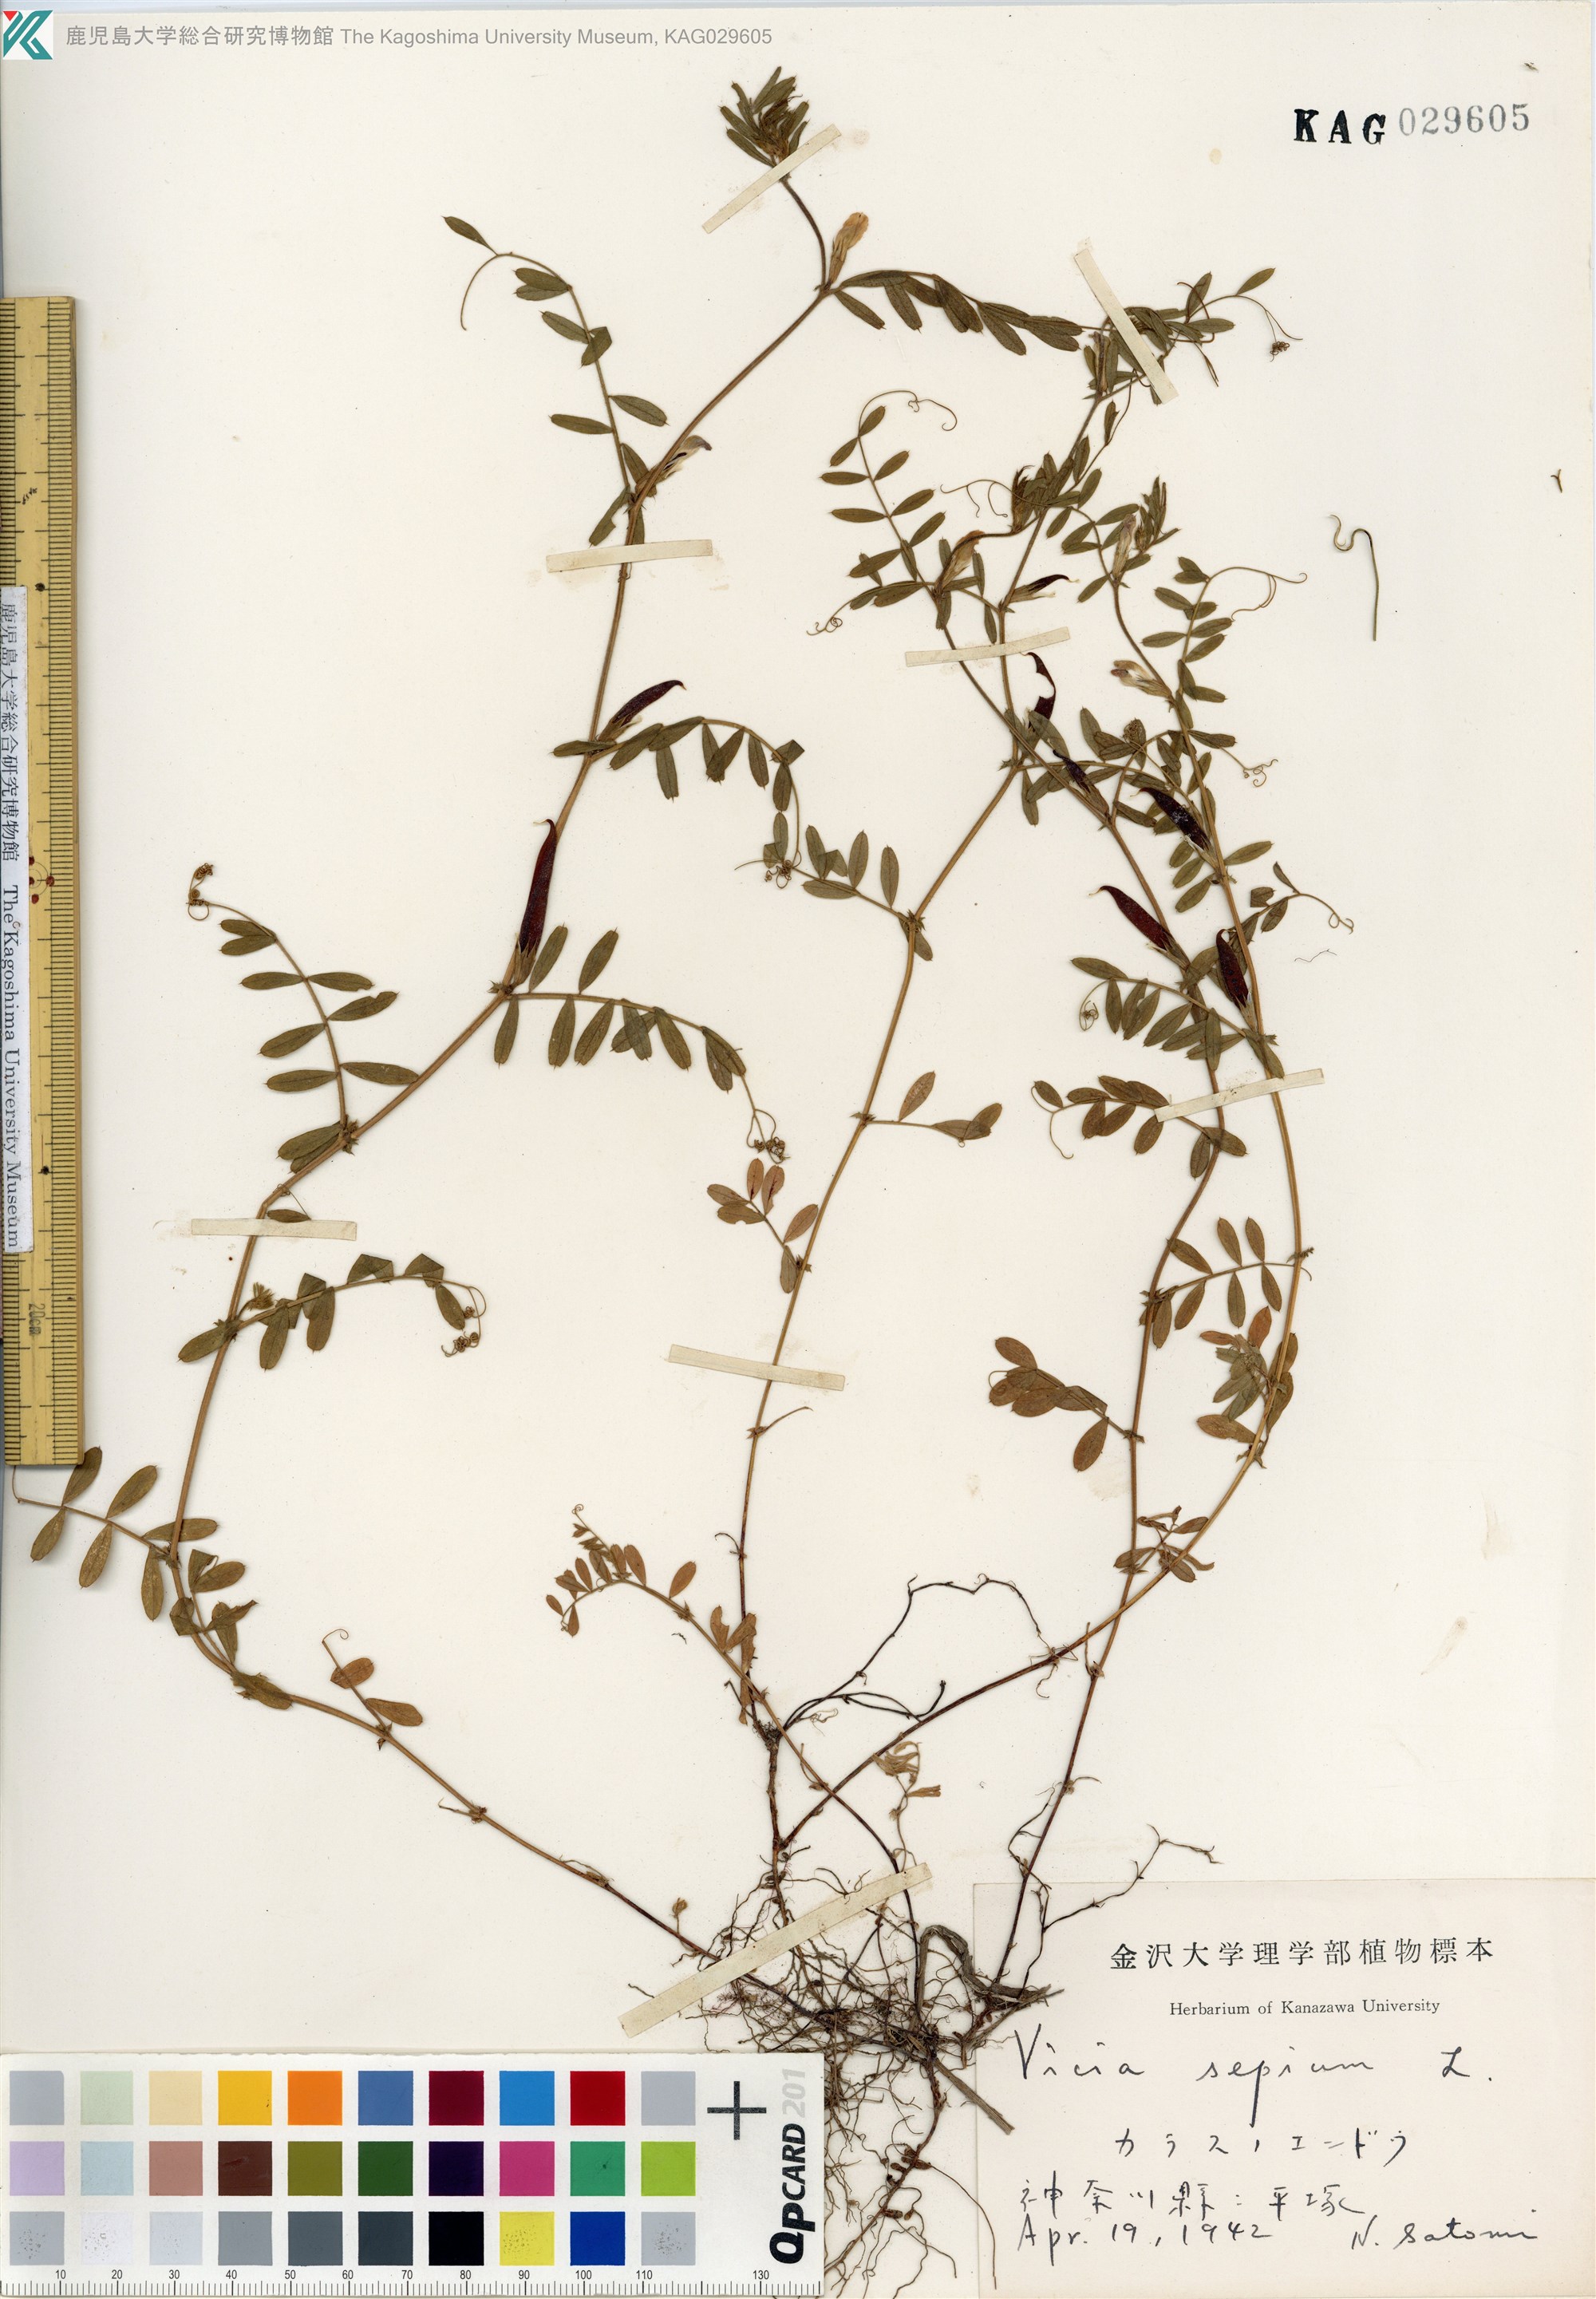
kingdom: Plantae
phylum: Tracheophyta
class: Magnoliopsida
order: Fabales
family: Fabaceae
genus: Vicia
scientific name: Vicia sativa
